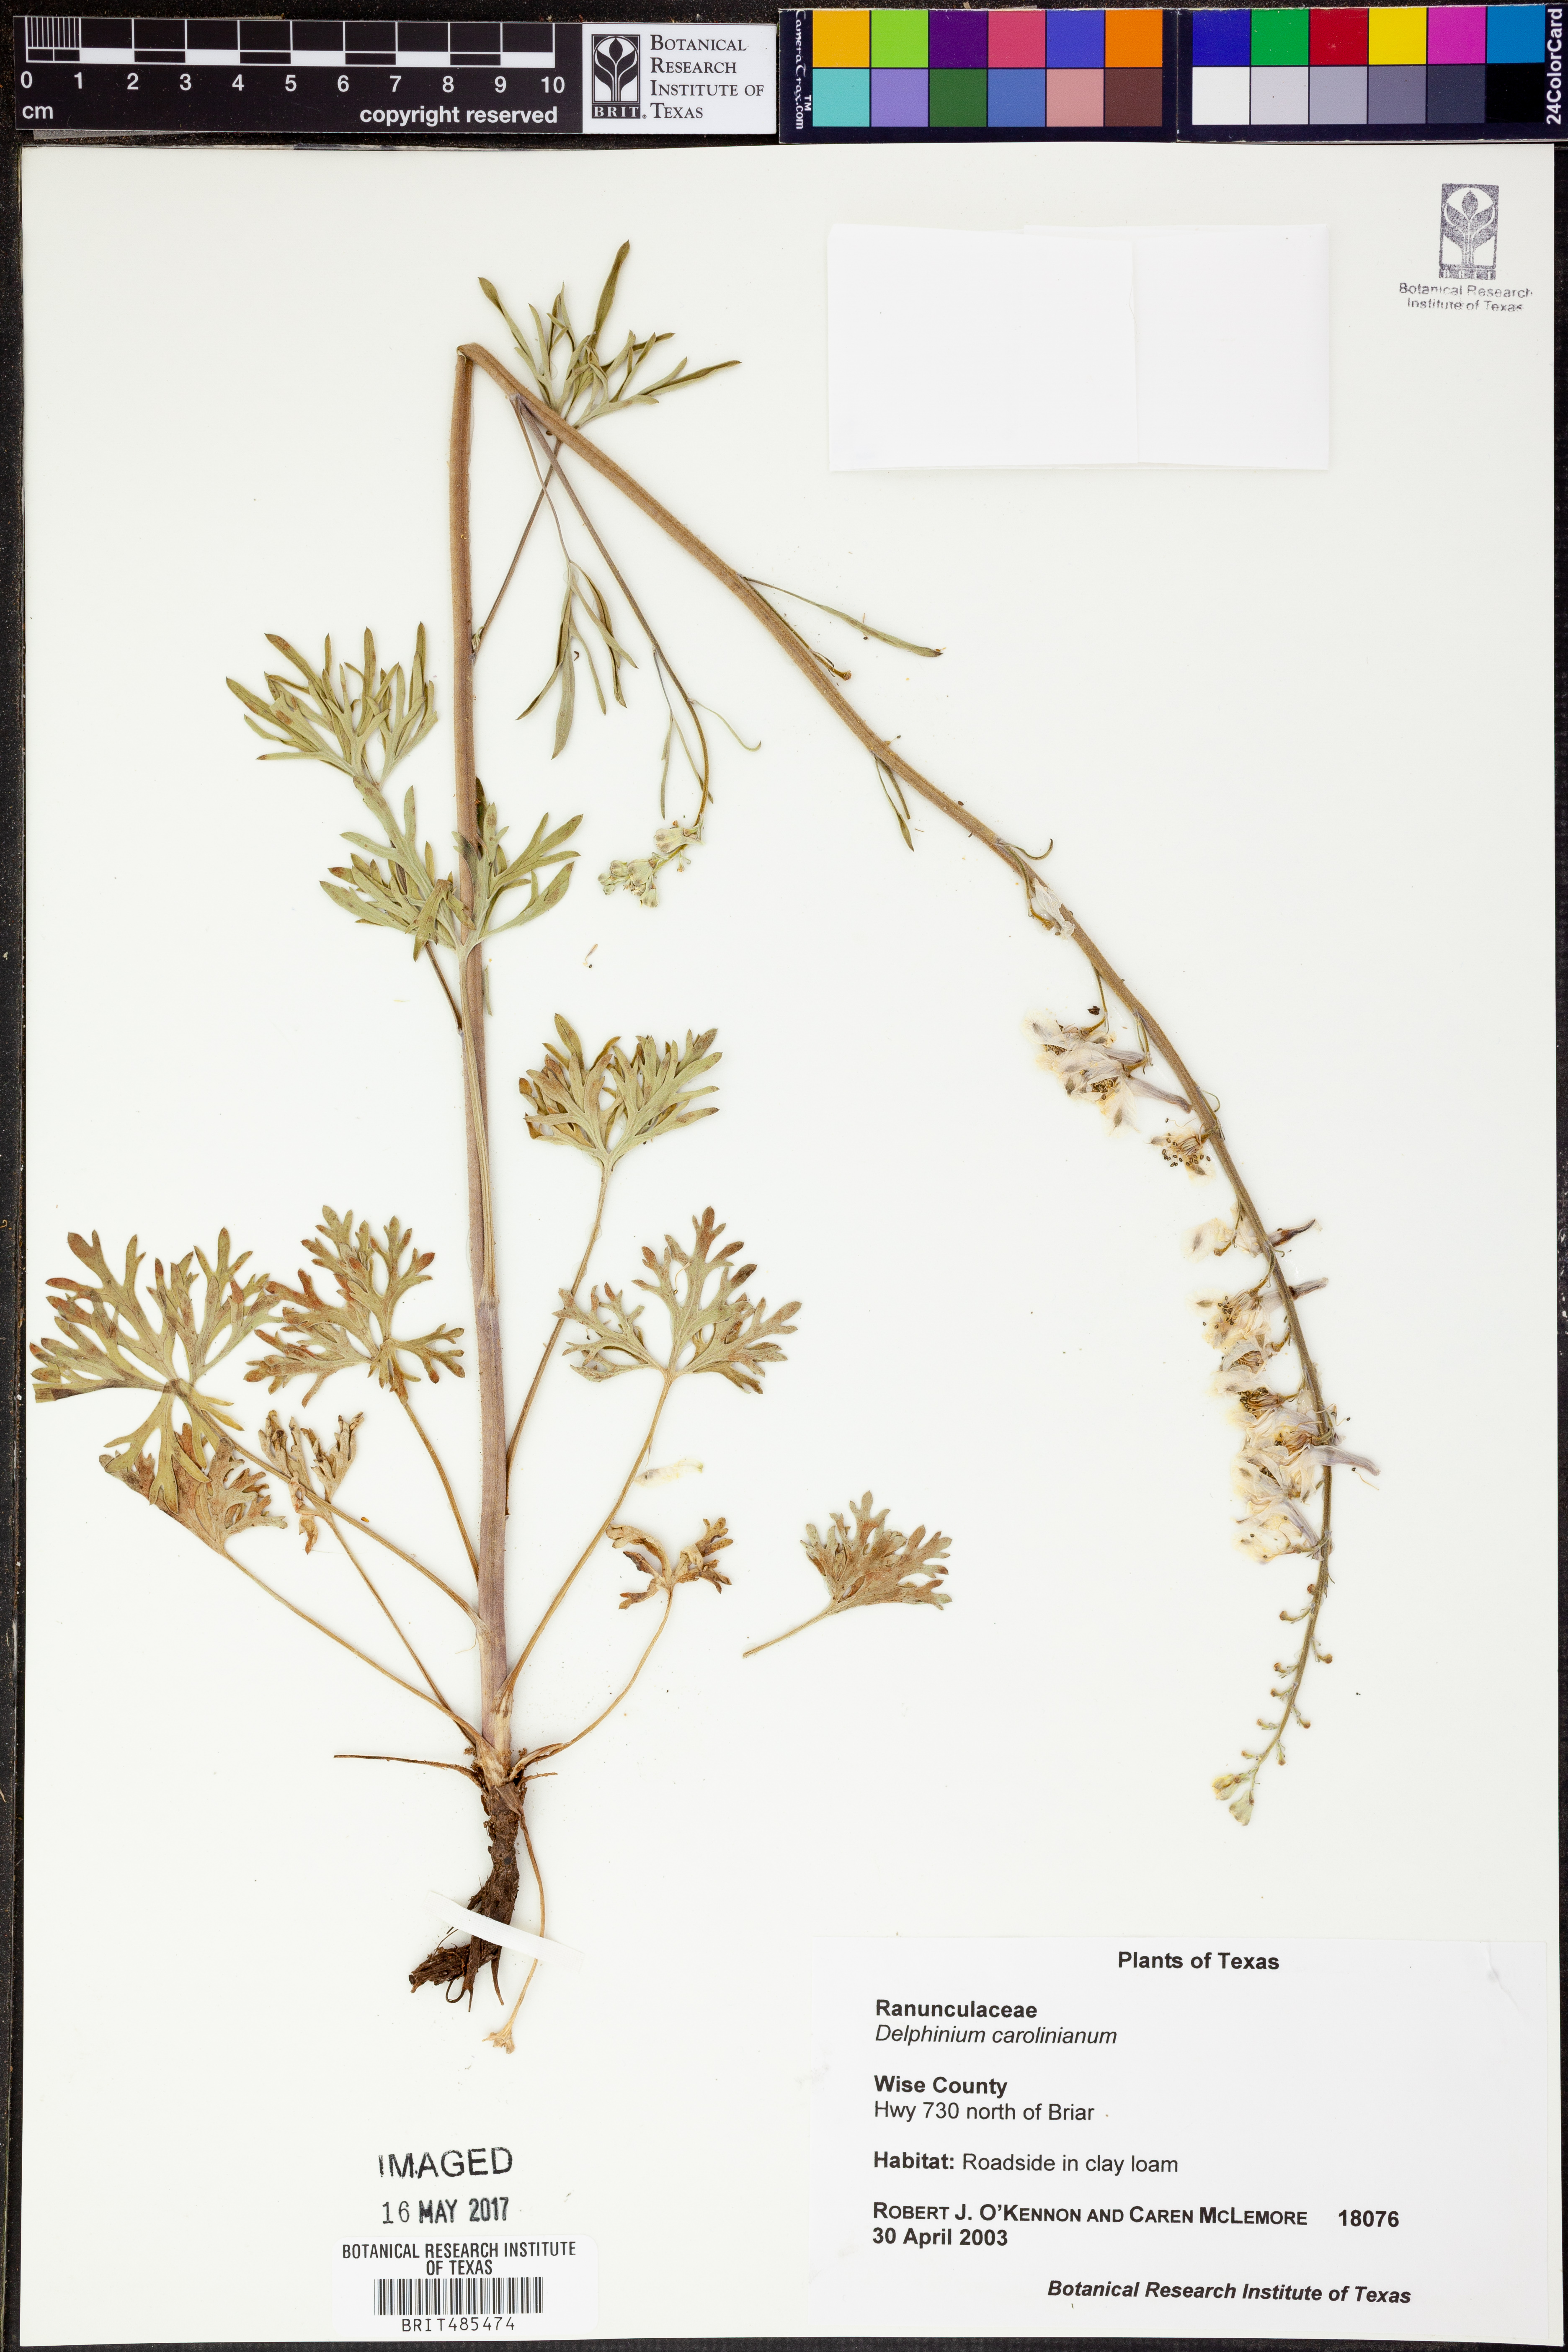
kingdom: Plantae
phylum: Tracheophyta
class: Magnoliopsida
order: Ranunculales
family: Ranunculaceae
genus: Delphinium
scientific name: Delphinium carolinianum
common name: Carolina larkspur
